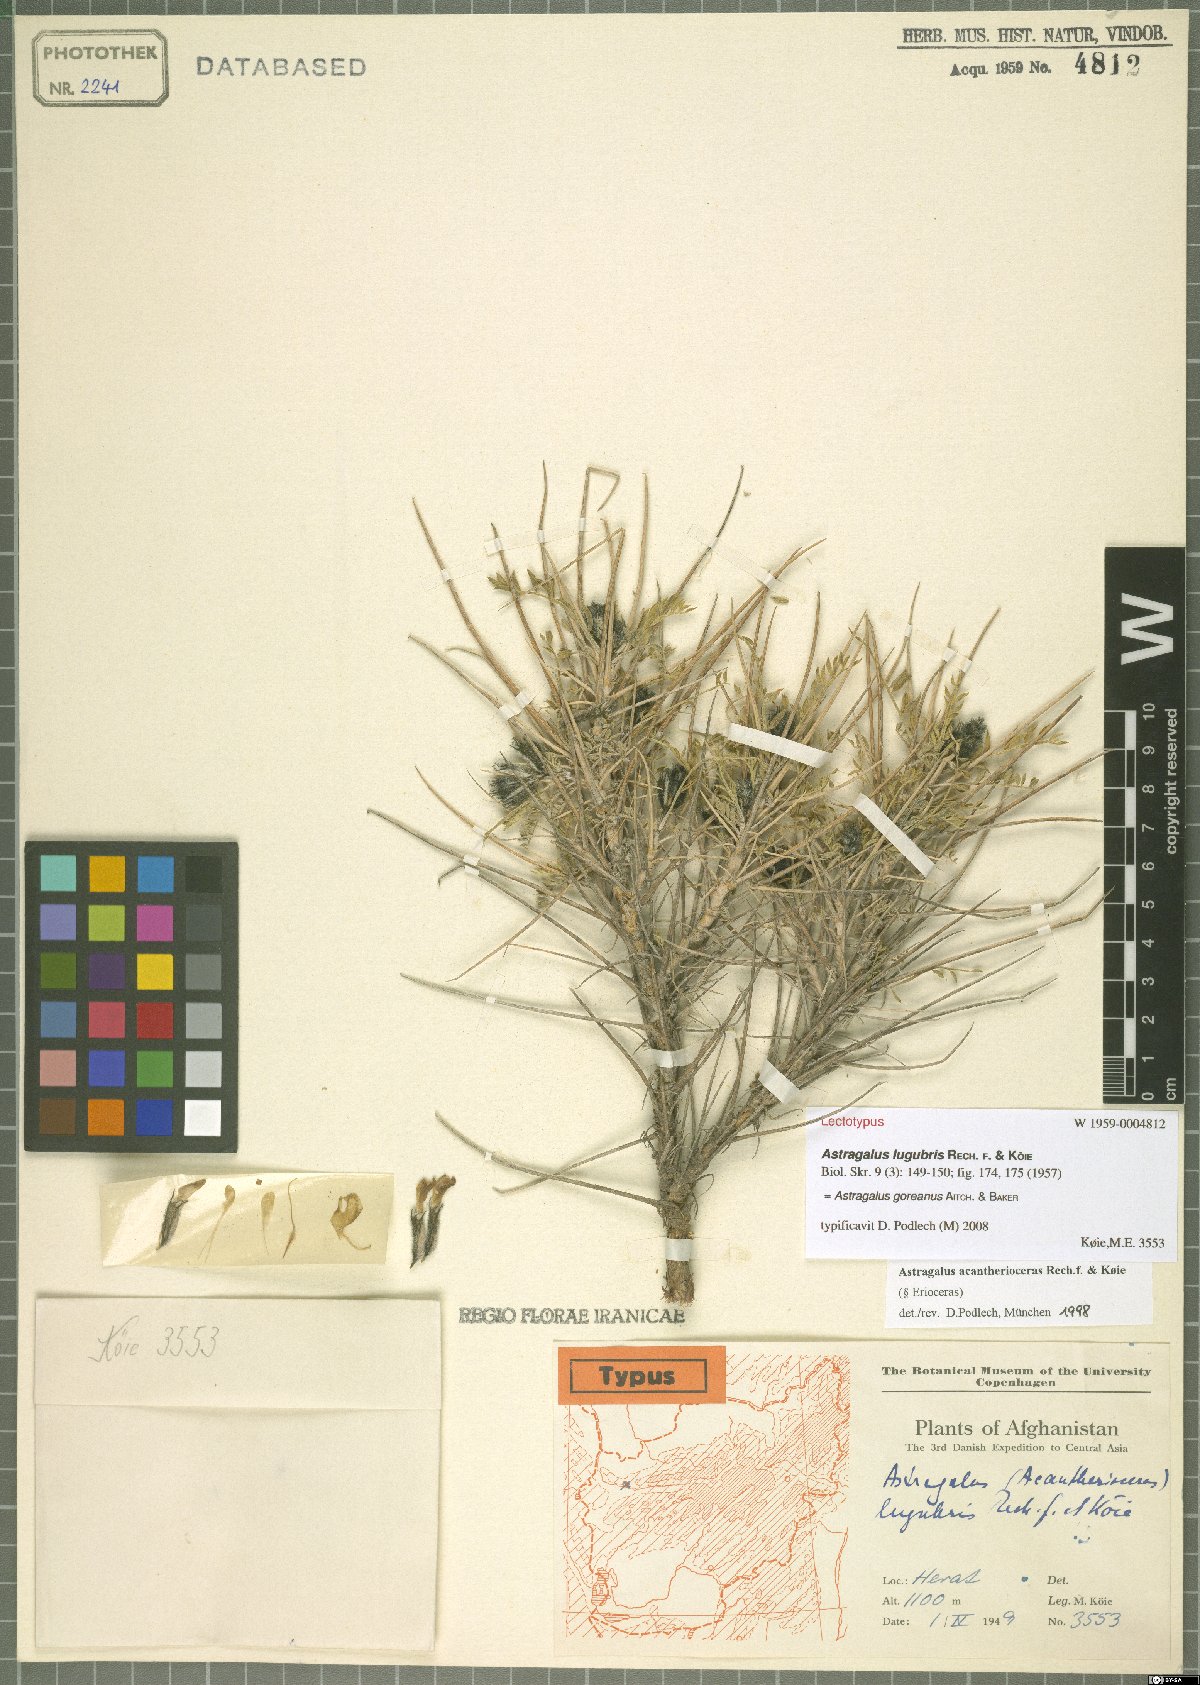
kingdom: Plantae
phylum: Tracheophyta
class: Magnoliopsida
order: Fabales
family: Fabaceae
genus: Astragalus
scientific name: Astragalus goreanus
